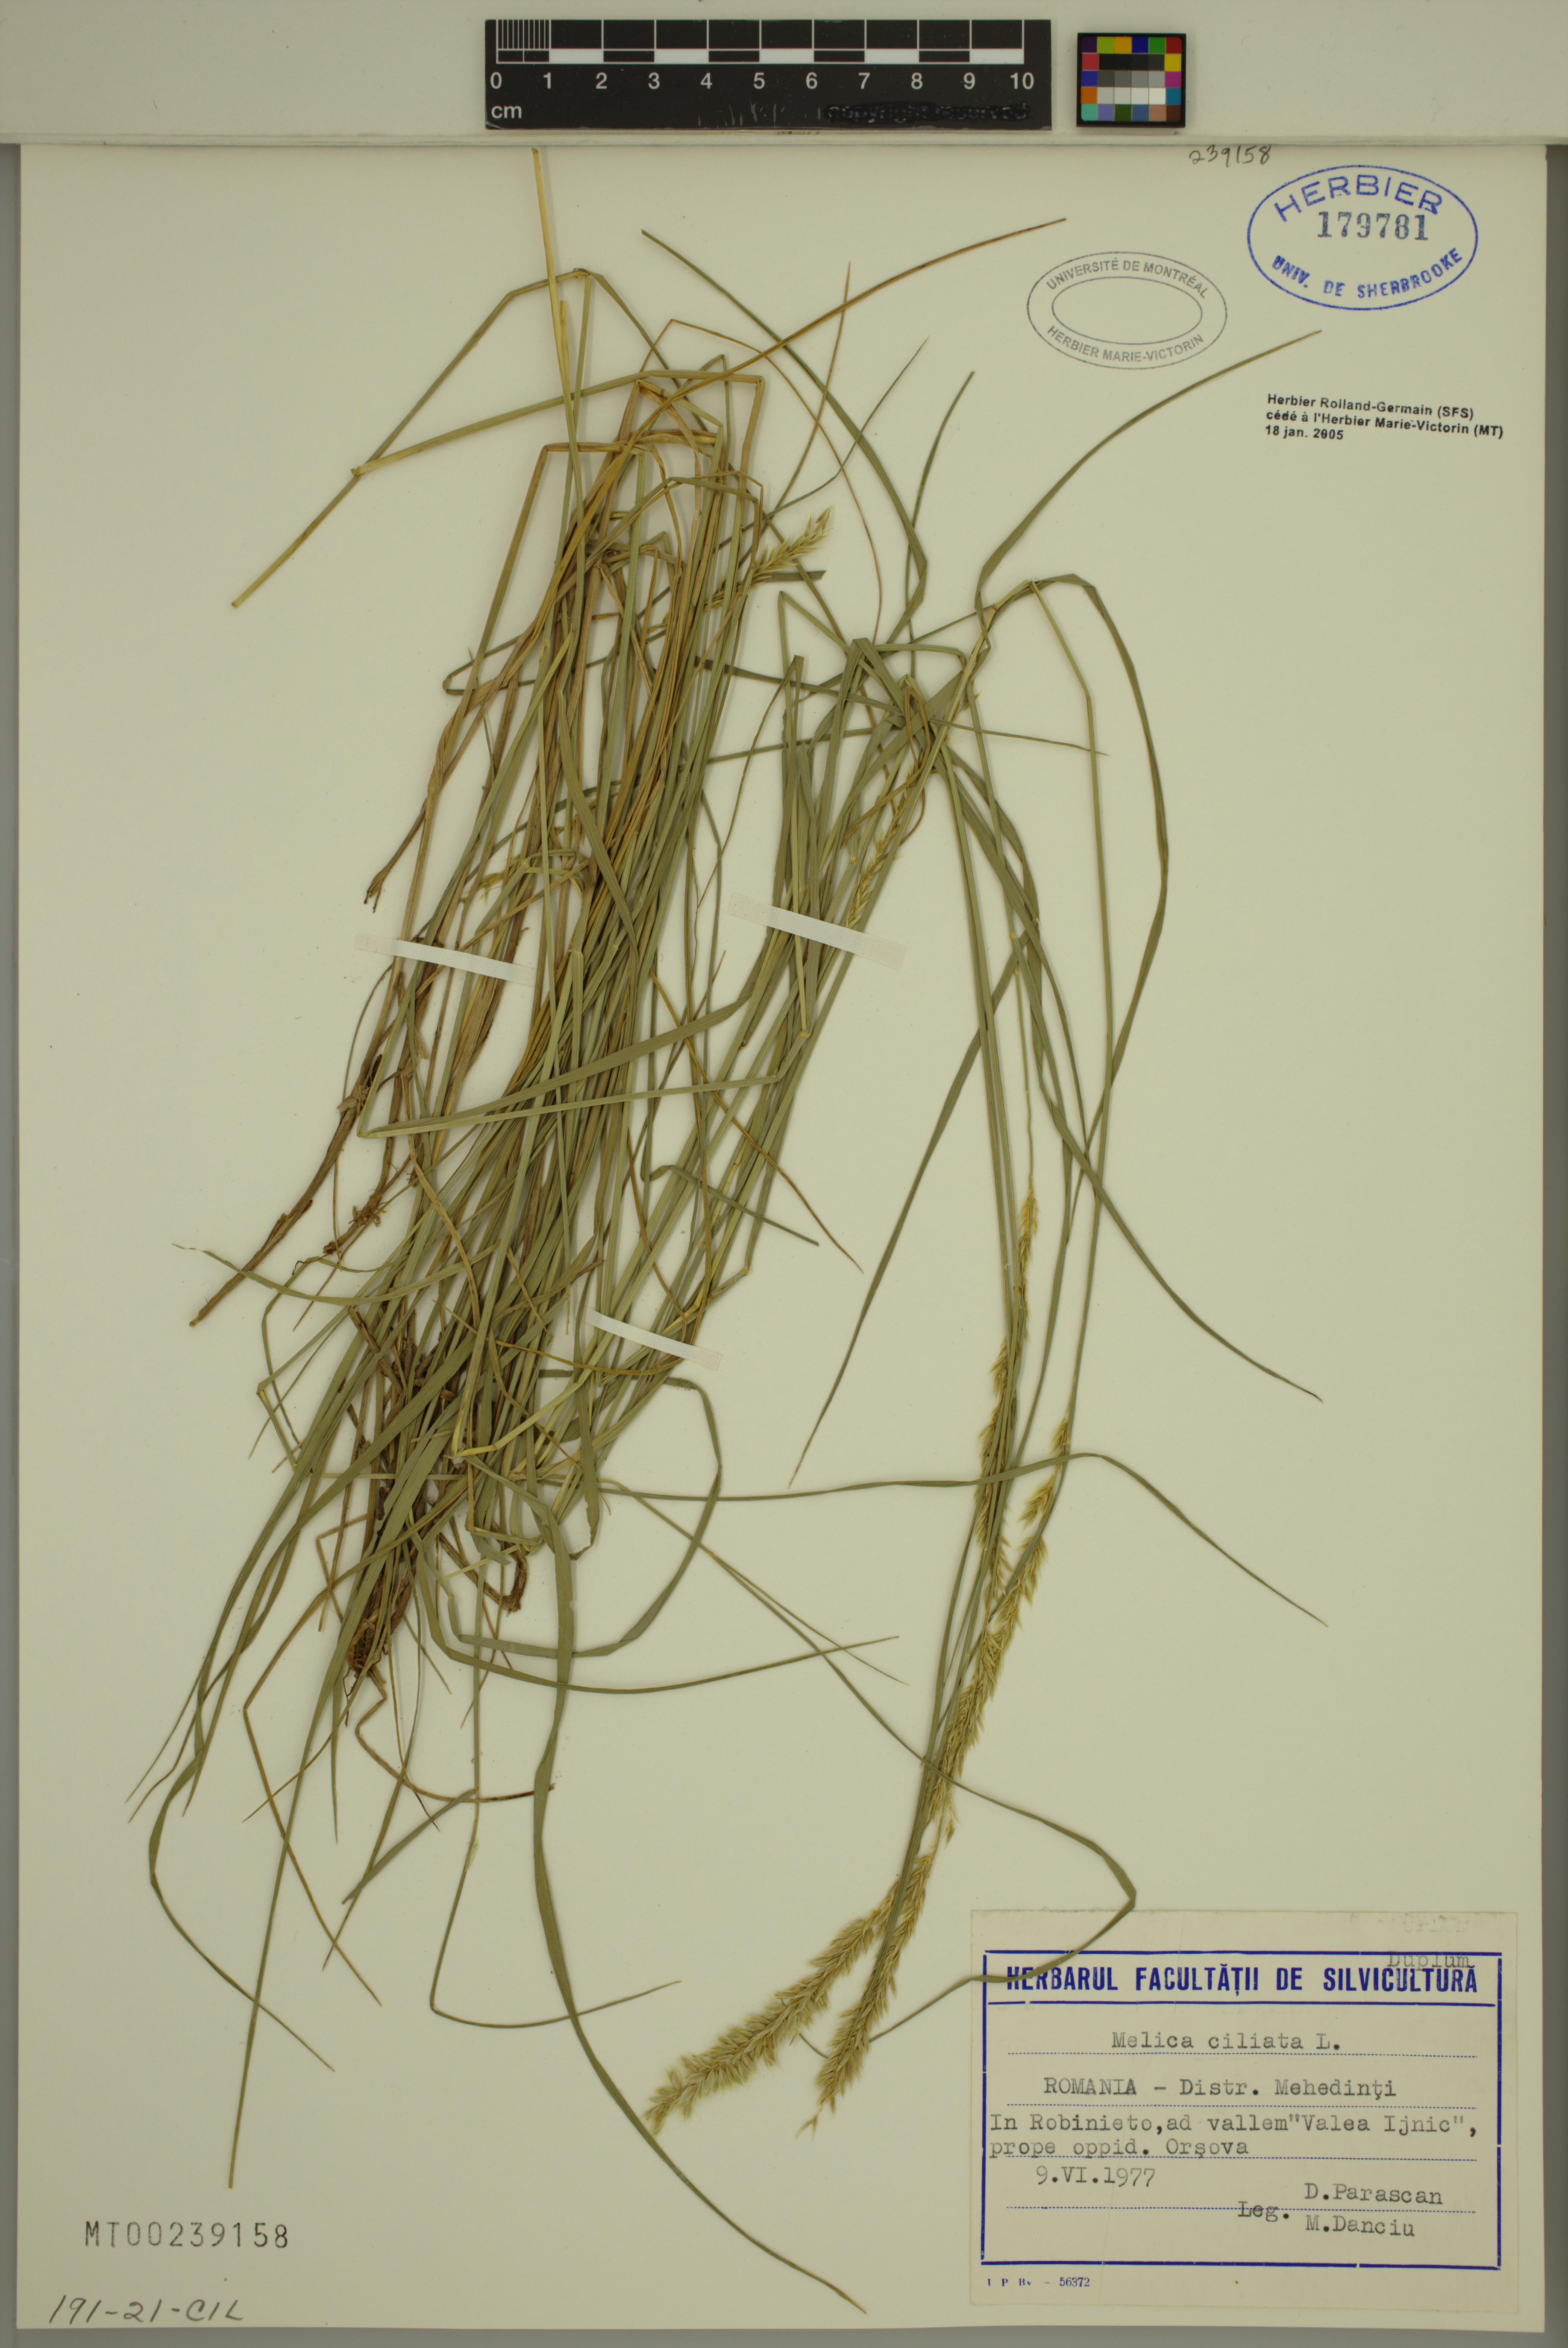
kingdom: Plantae
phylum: Tracheophyta
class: Liliopsida
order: Poales
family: Poaceae
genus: Melica
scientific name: Melica ciliata
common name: Hairy melicgrass
